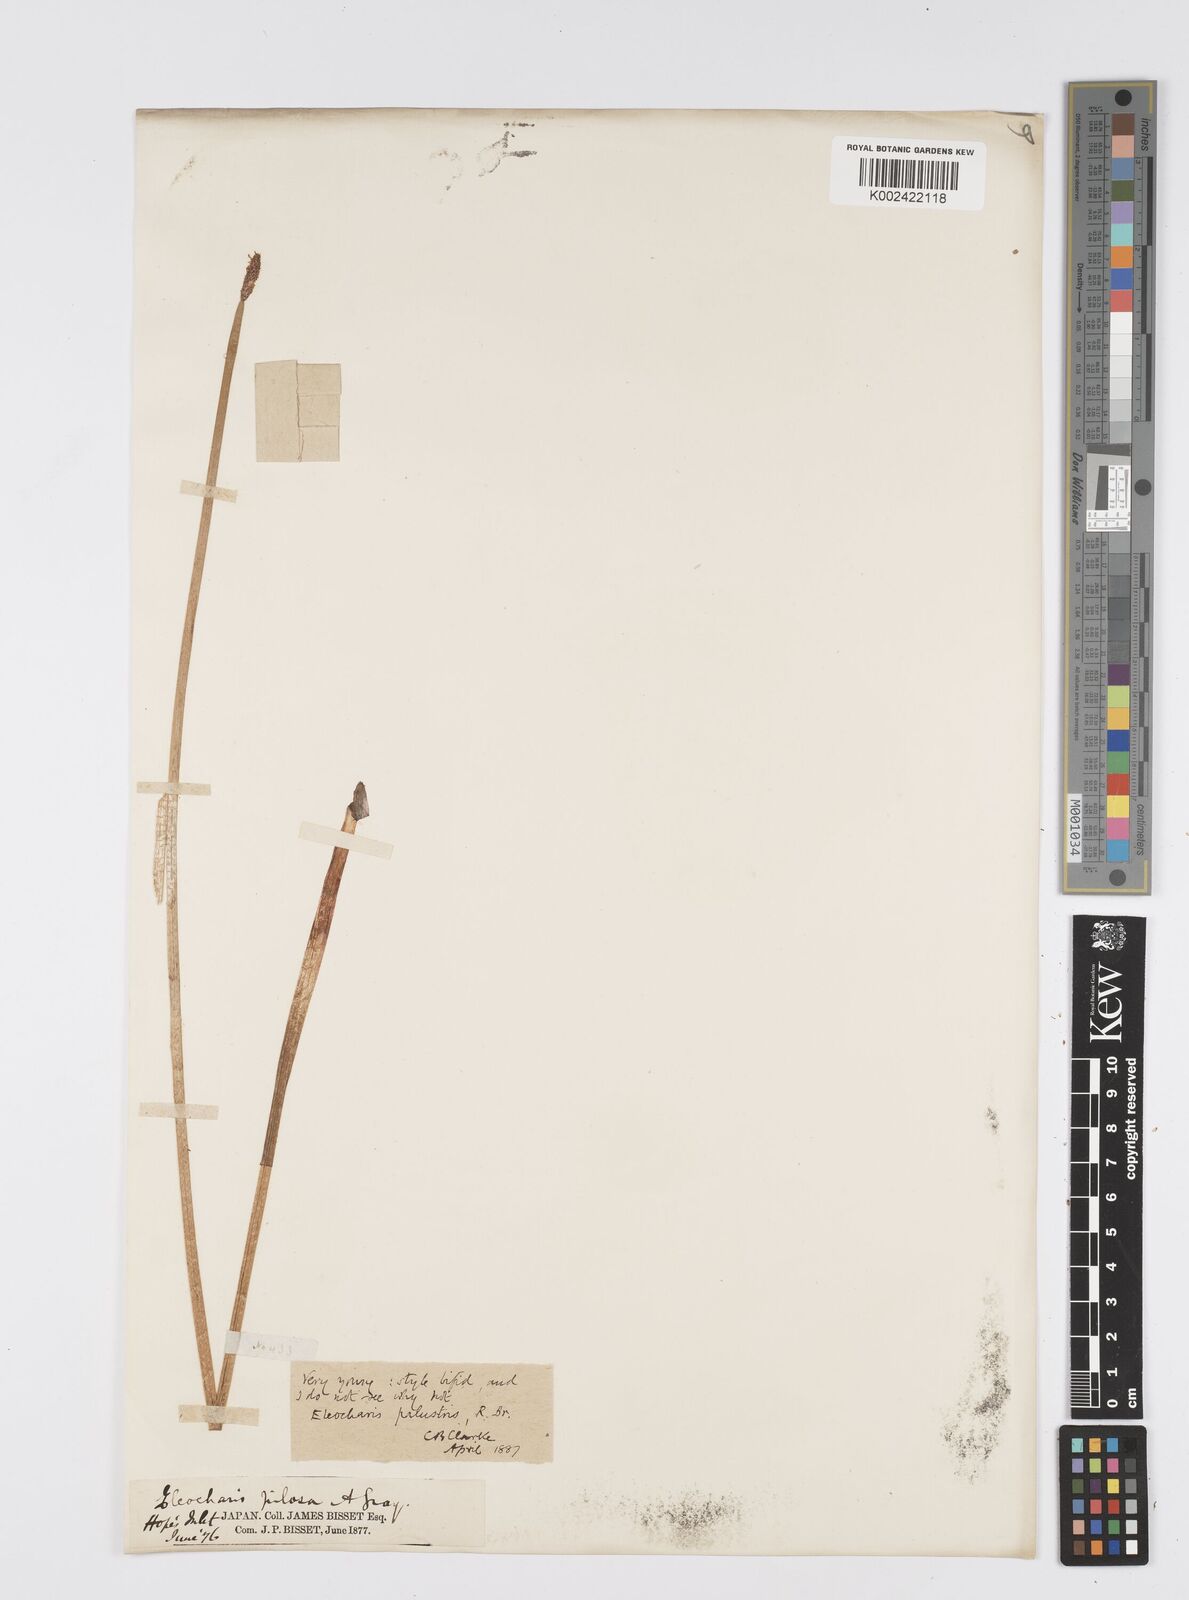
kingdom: Plantae
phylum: Tracheophyta
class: Liliopsida
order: Poales
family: Cyperaceae
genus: Eleocharis
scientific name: Eleocharis palustris
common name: Common spike-rush
